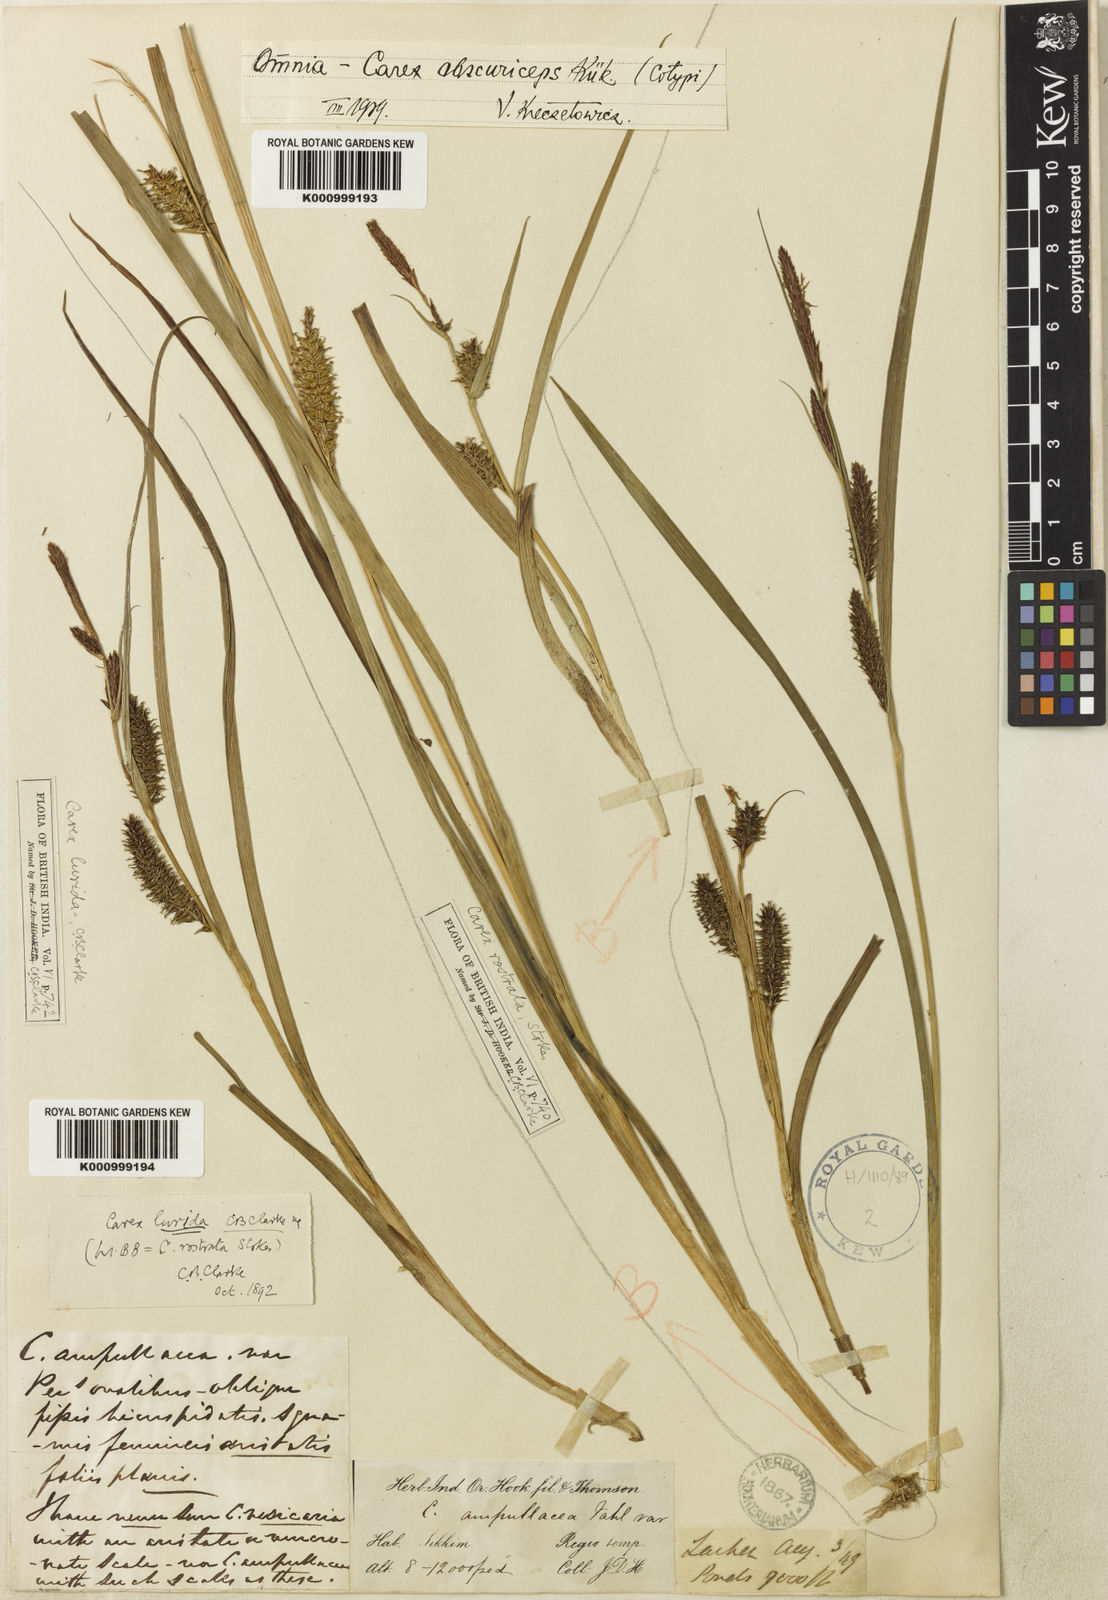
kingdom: Plantae
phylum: Tracheophyta
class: Liliopsida
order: Poales
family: Cyperaceae
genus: Carex
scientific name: Carex
